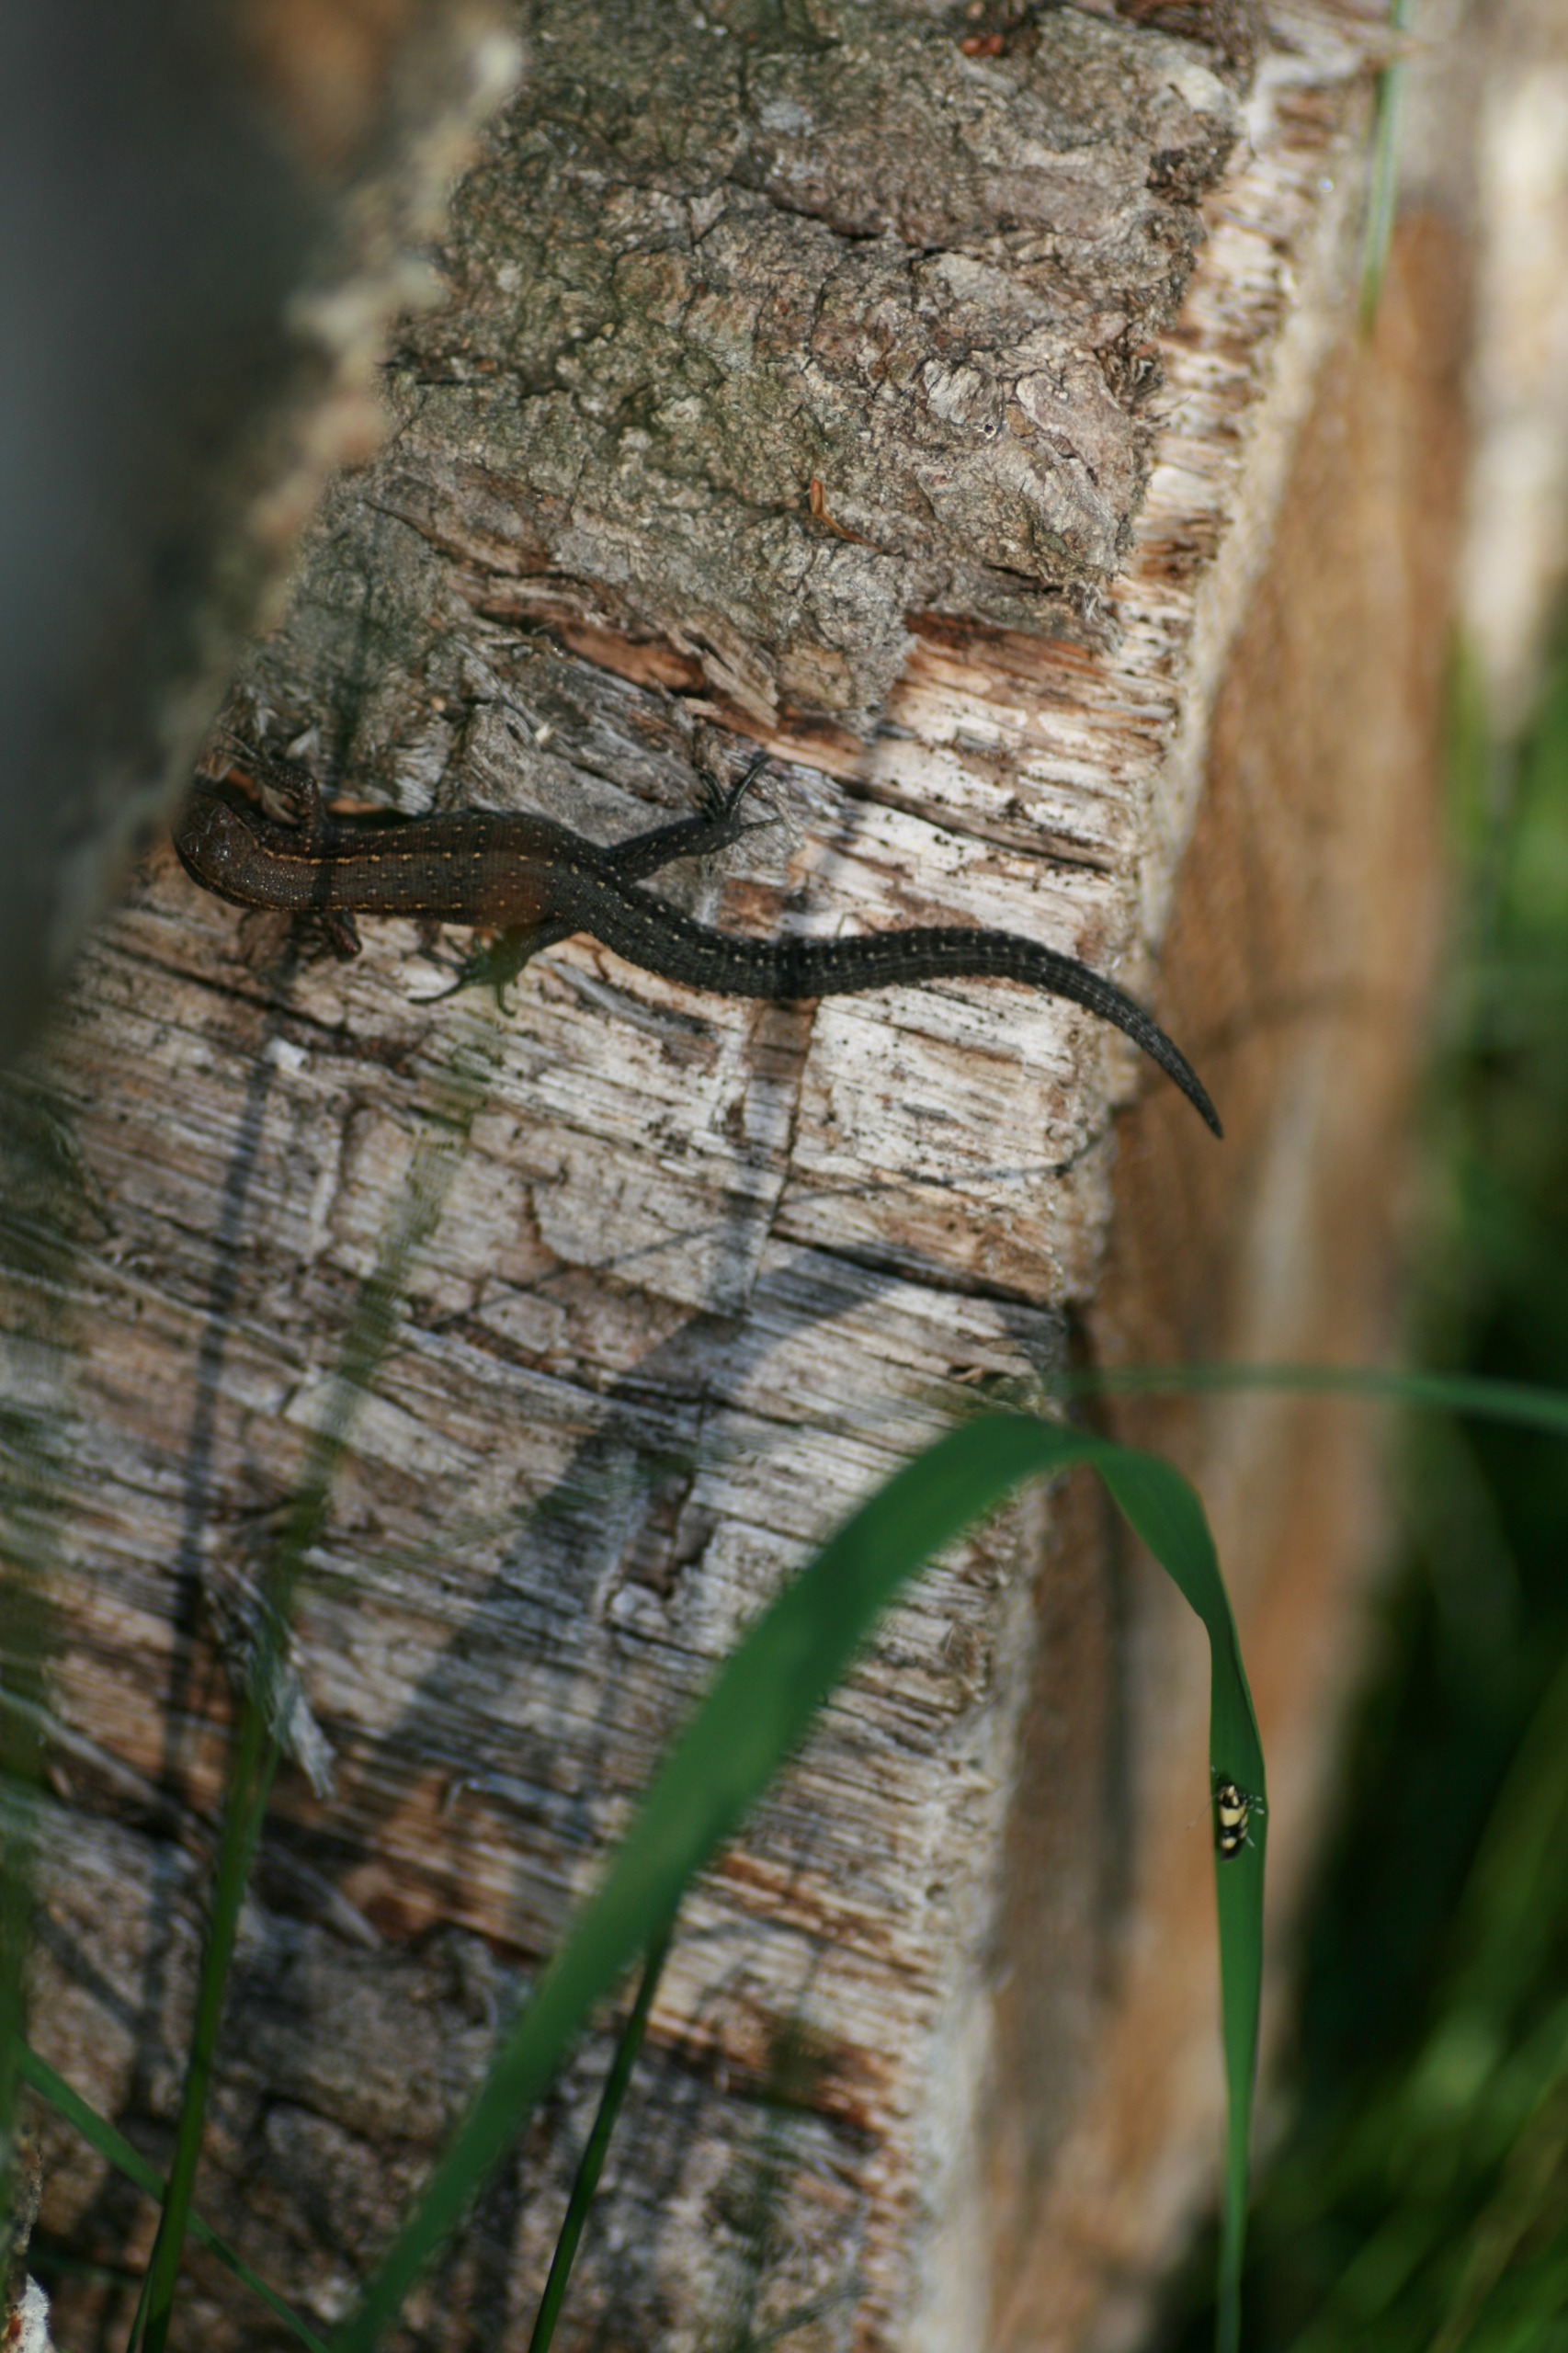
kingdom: Animalia
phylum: Chordata
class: Squamata
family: Lacertidae
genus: Zootoca
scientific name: Zootoca vivipara
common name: Skovfirben
